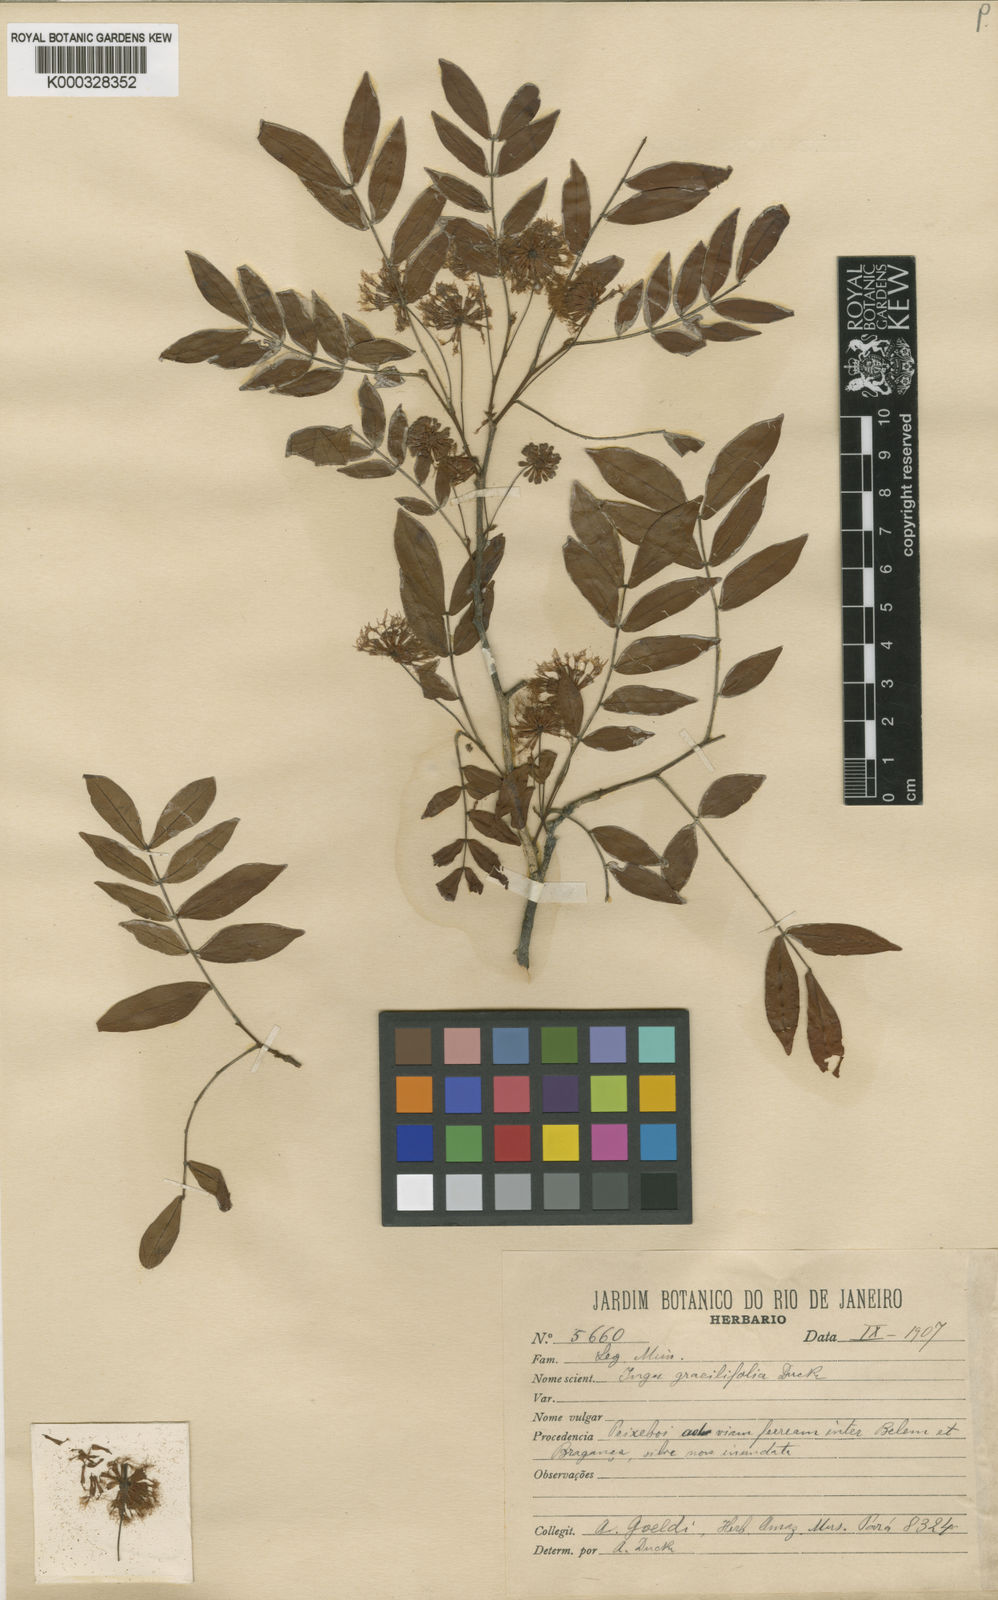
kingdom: Plantae
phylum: Tracheophyta
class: Magnoliopsida
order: Fabales
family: Fabaceae
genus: Inga
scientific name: Inga gracilifolia
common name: Gracefulleaf inga
